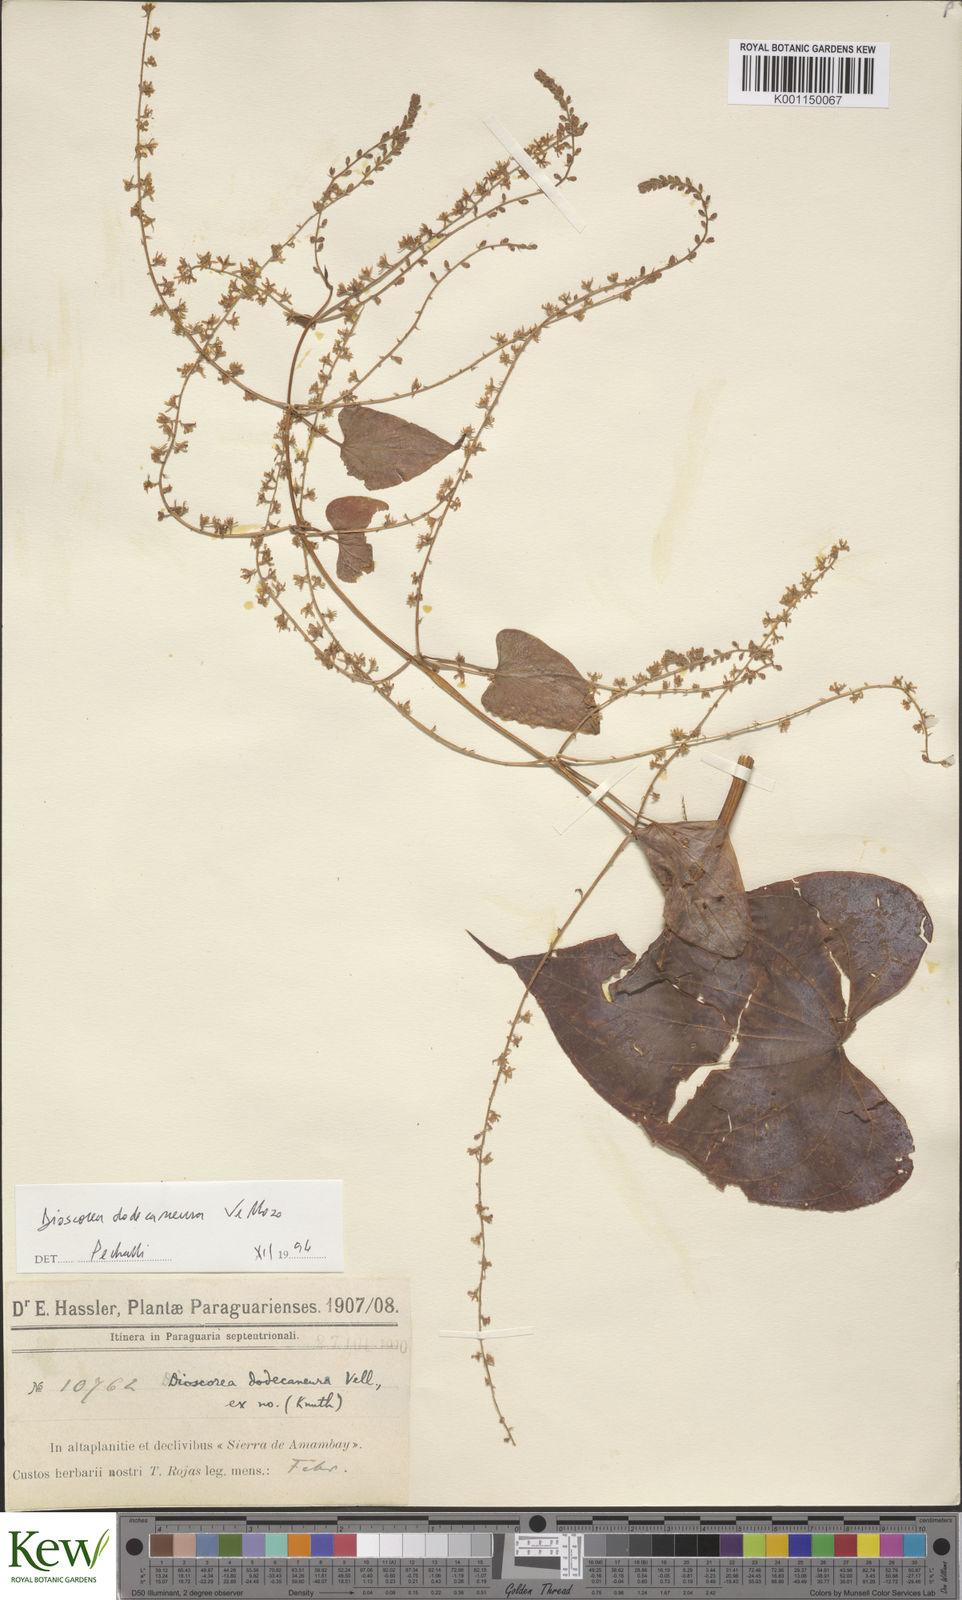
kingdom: Plantae
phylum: Tracheophyta
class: Liliopsida
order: Dioscoreales
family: Dioscoreaceae
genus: Dioscorea
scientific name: Dioscorea dodecaneura
